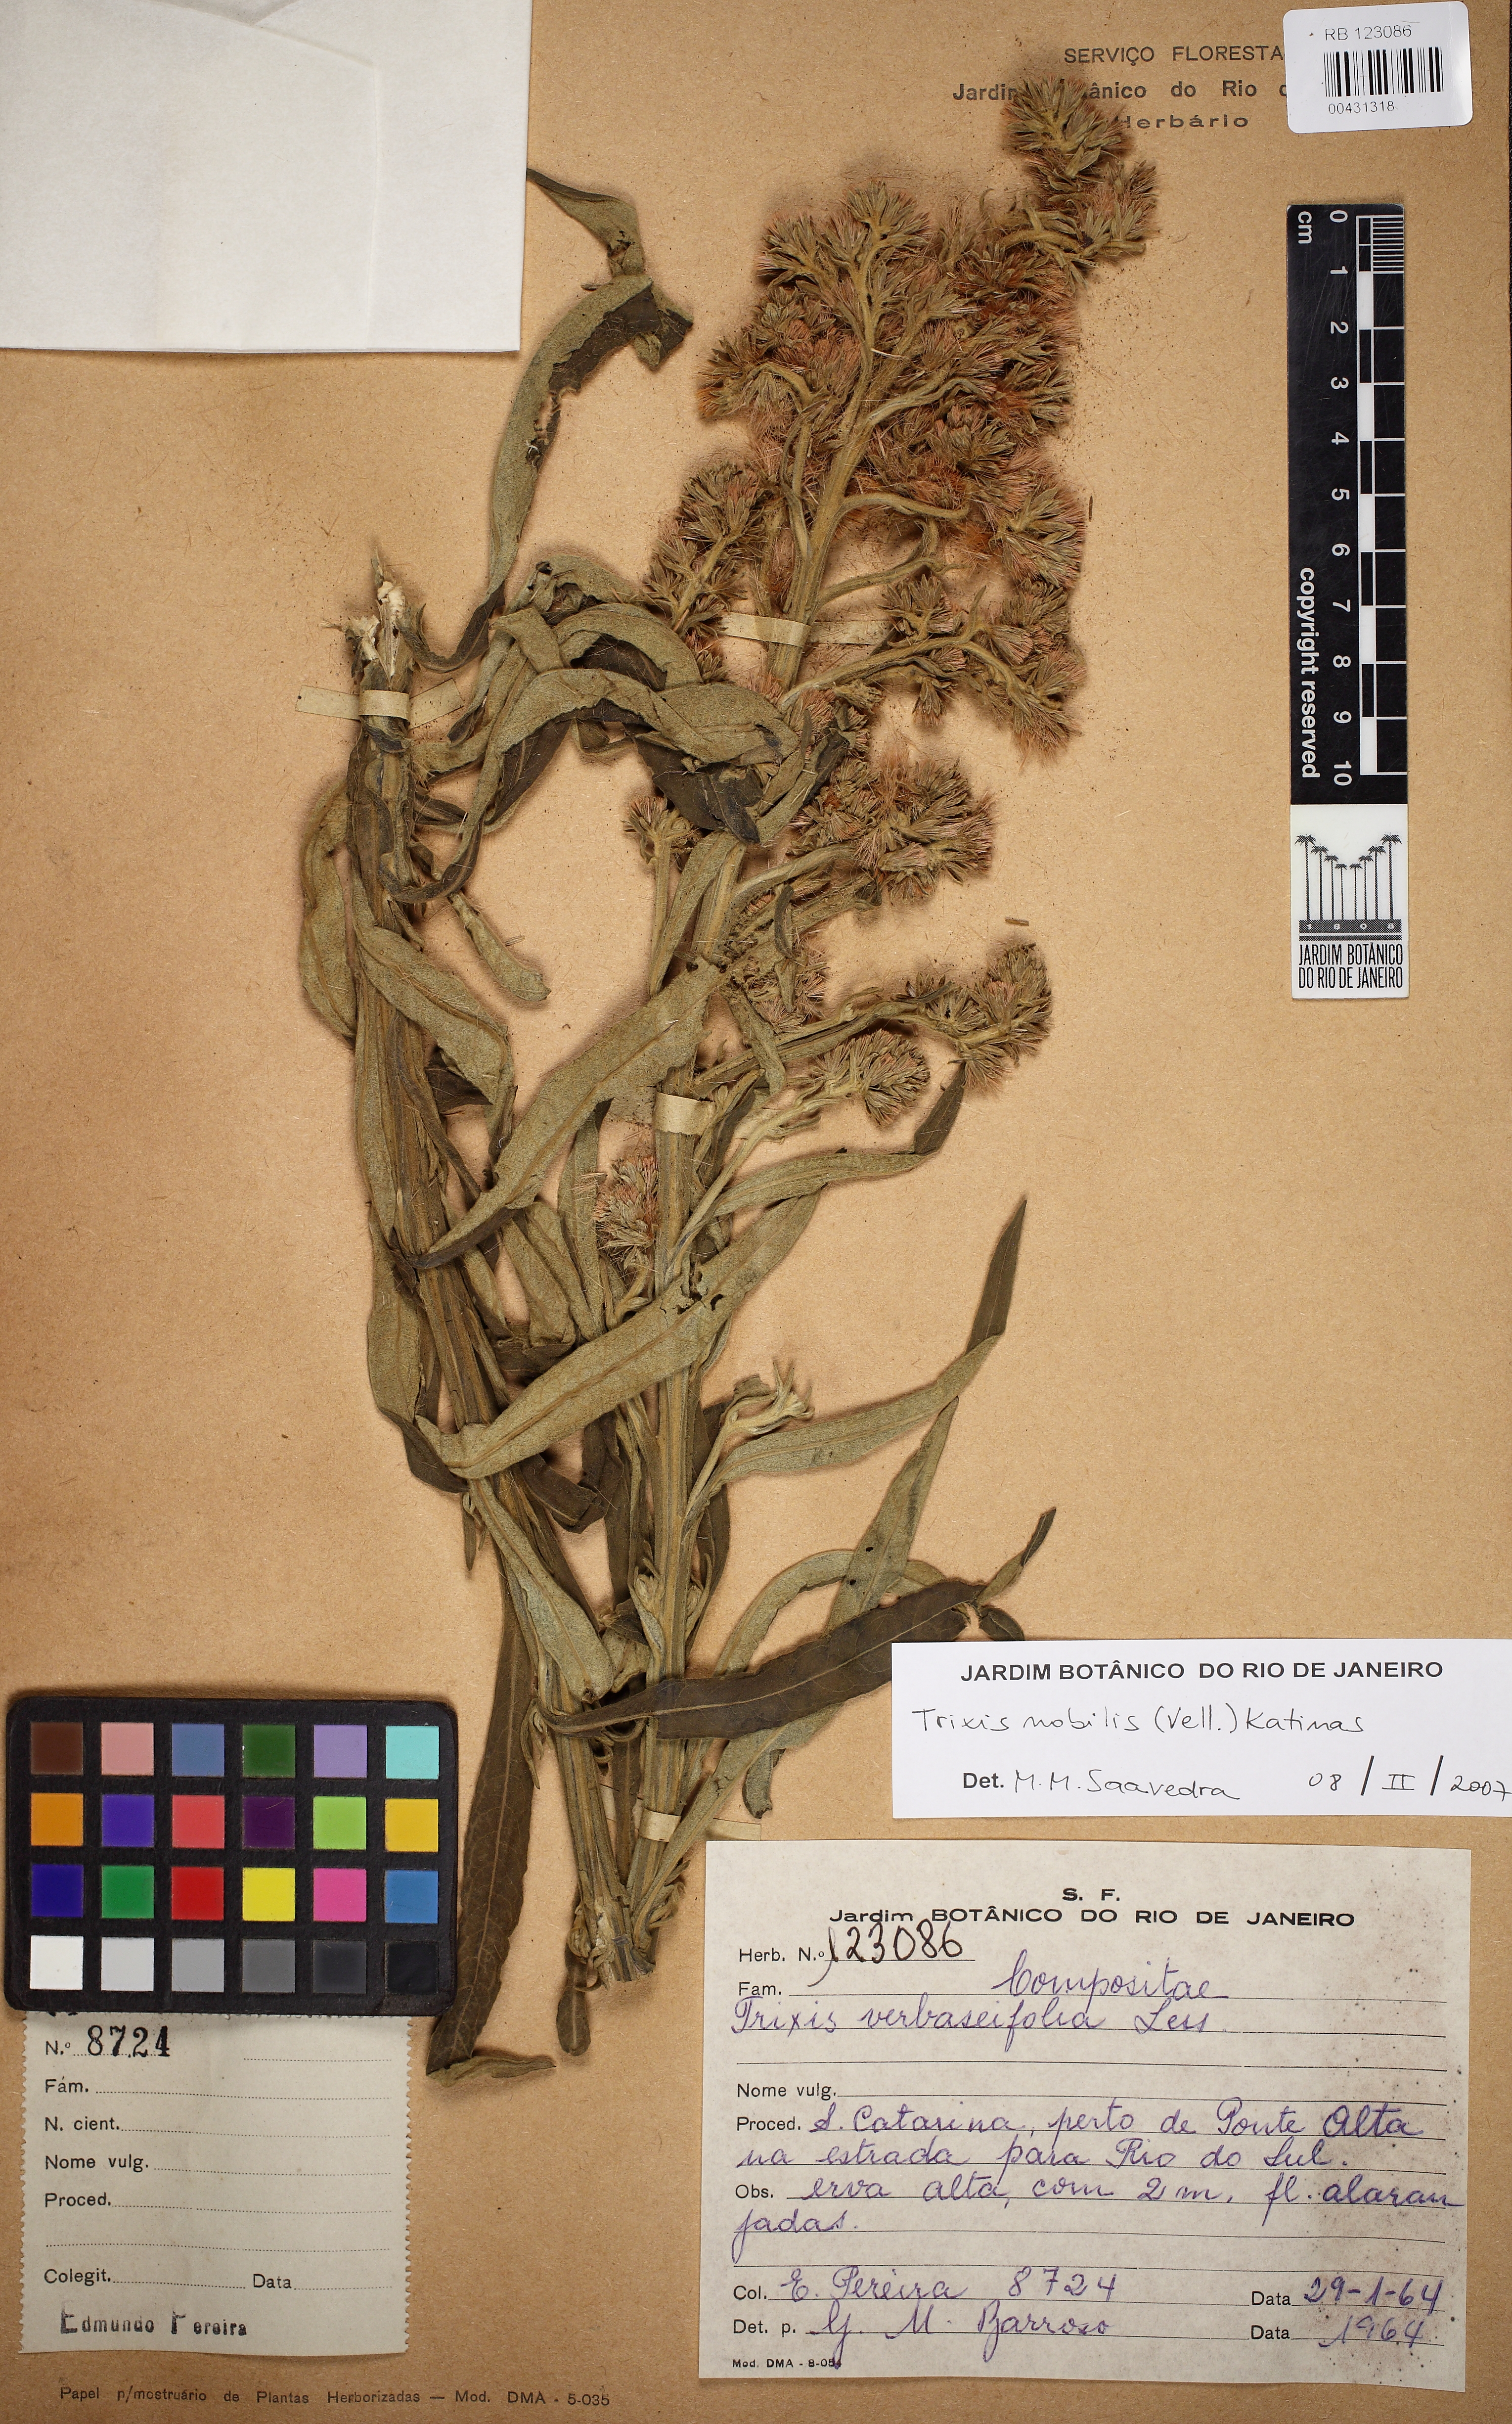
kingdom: Plantae
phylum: Tracheophyta
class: Magnoliopsida
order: Asterales
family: Asteraceae
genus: Trixis
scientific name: Trixis nobilis
